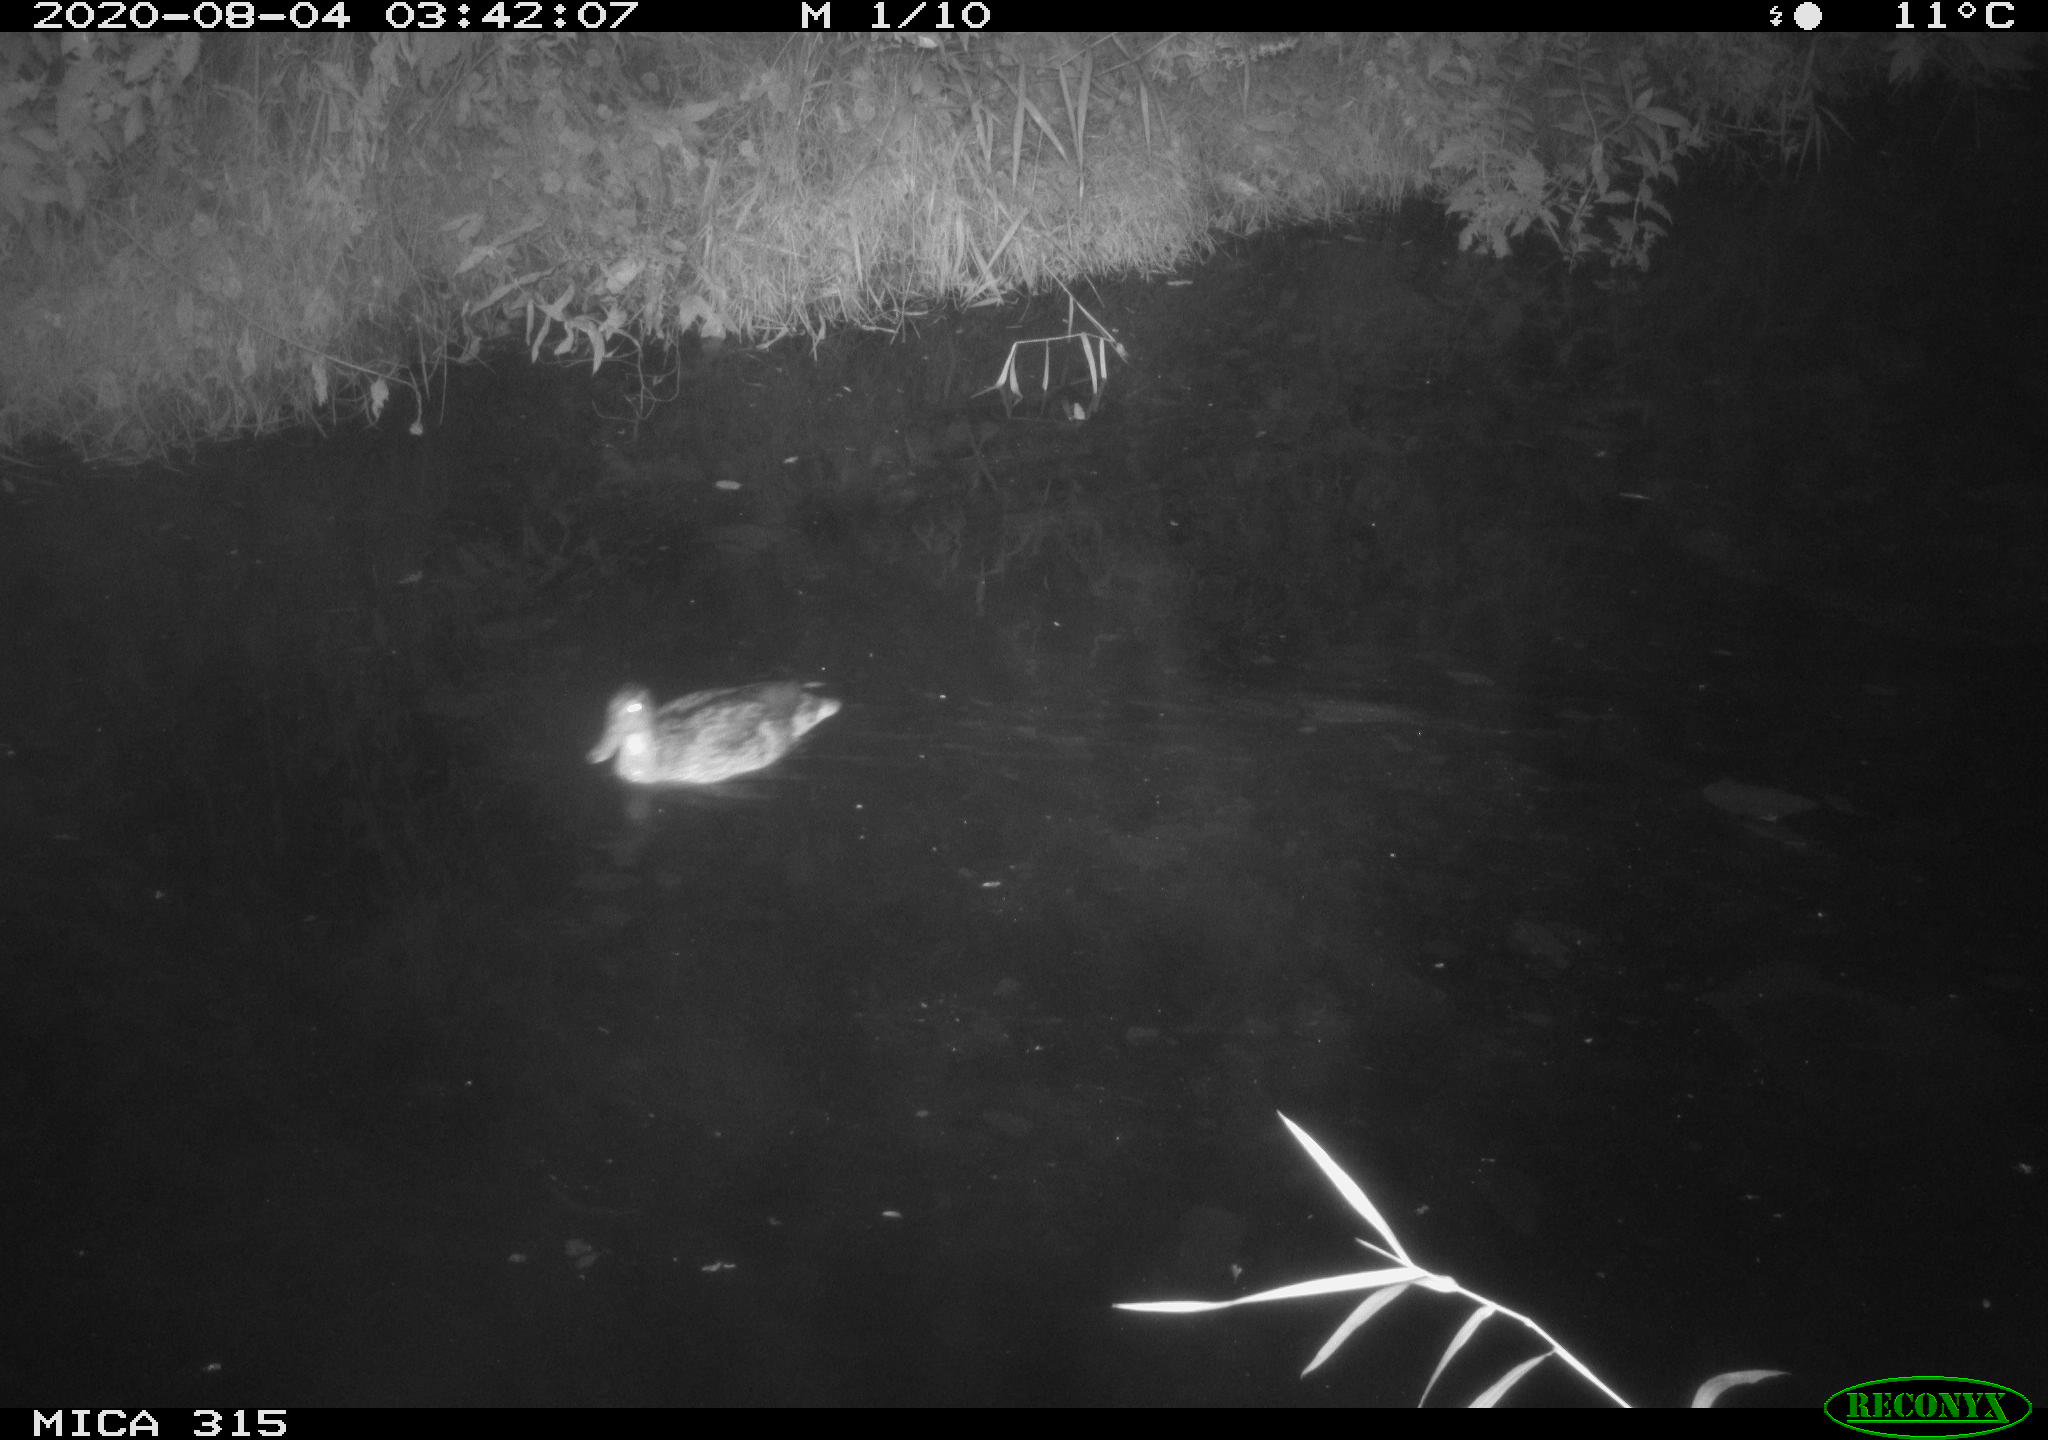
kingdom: Animalia
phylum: Chordata
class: Aves
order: Anseriformes
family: Anatidae
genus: Anas
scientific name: Anas platyrhynchos
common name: Mallard
